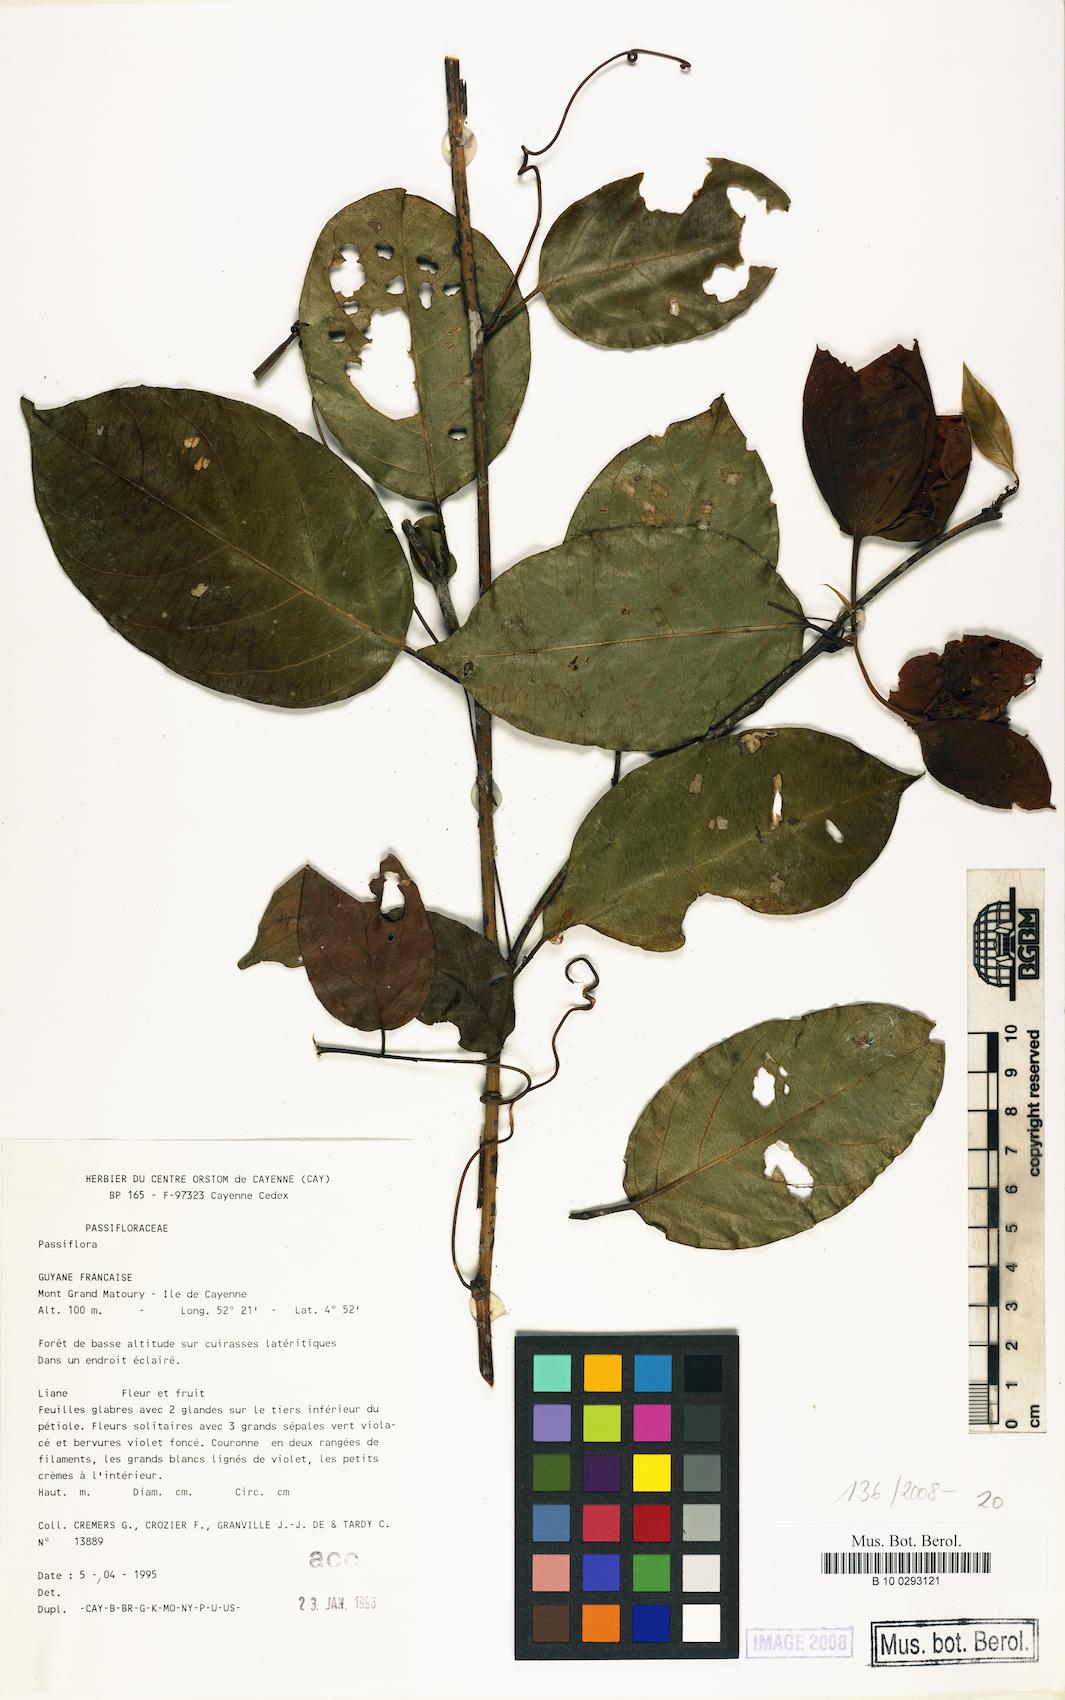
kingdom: Plantae
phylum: Tracheophyta
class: Magnoliopsida
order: Malpighiales
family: Passifloraceae
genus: Passiflora
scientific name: Passiflora
